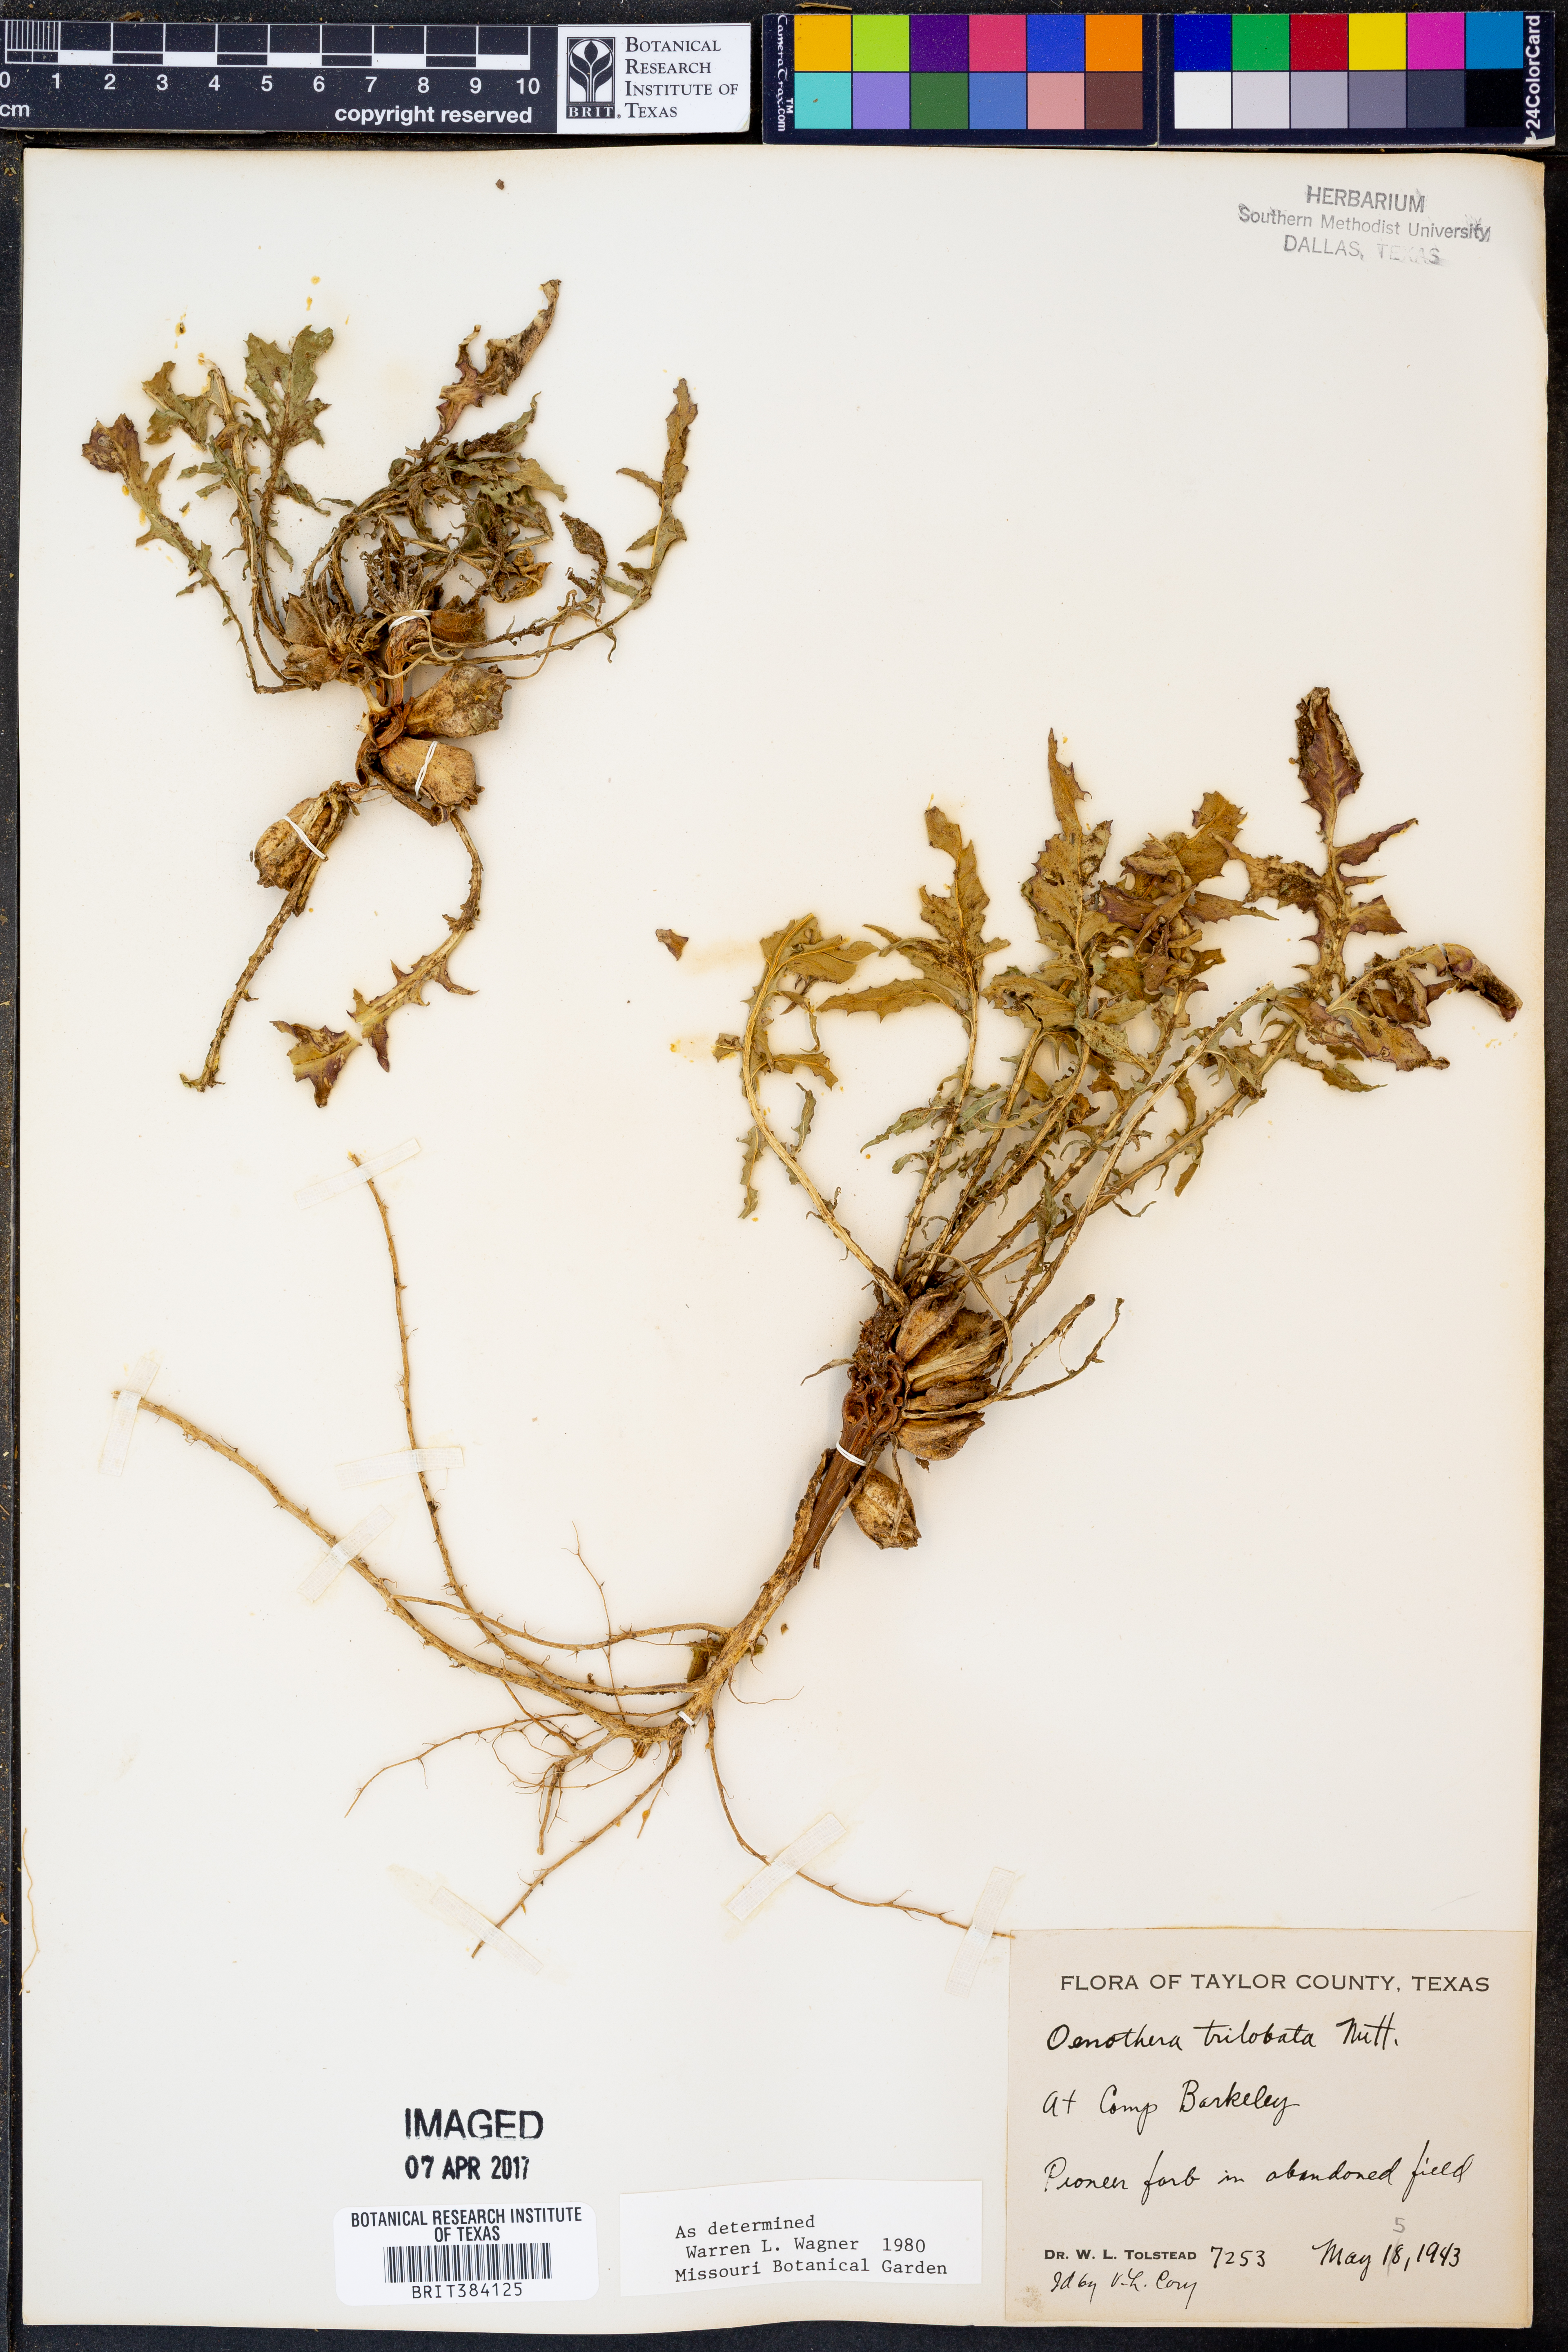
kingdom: Plantae
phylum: Tracheophyta
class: Magnoliopsida
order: Myrtales
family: Onagraceae
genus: Oenothera
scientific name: Oenothera triloba
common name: Sessile evening-primrose
